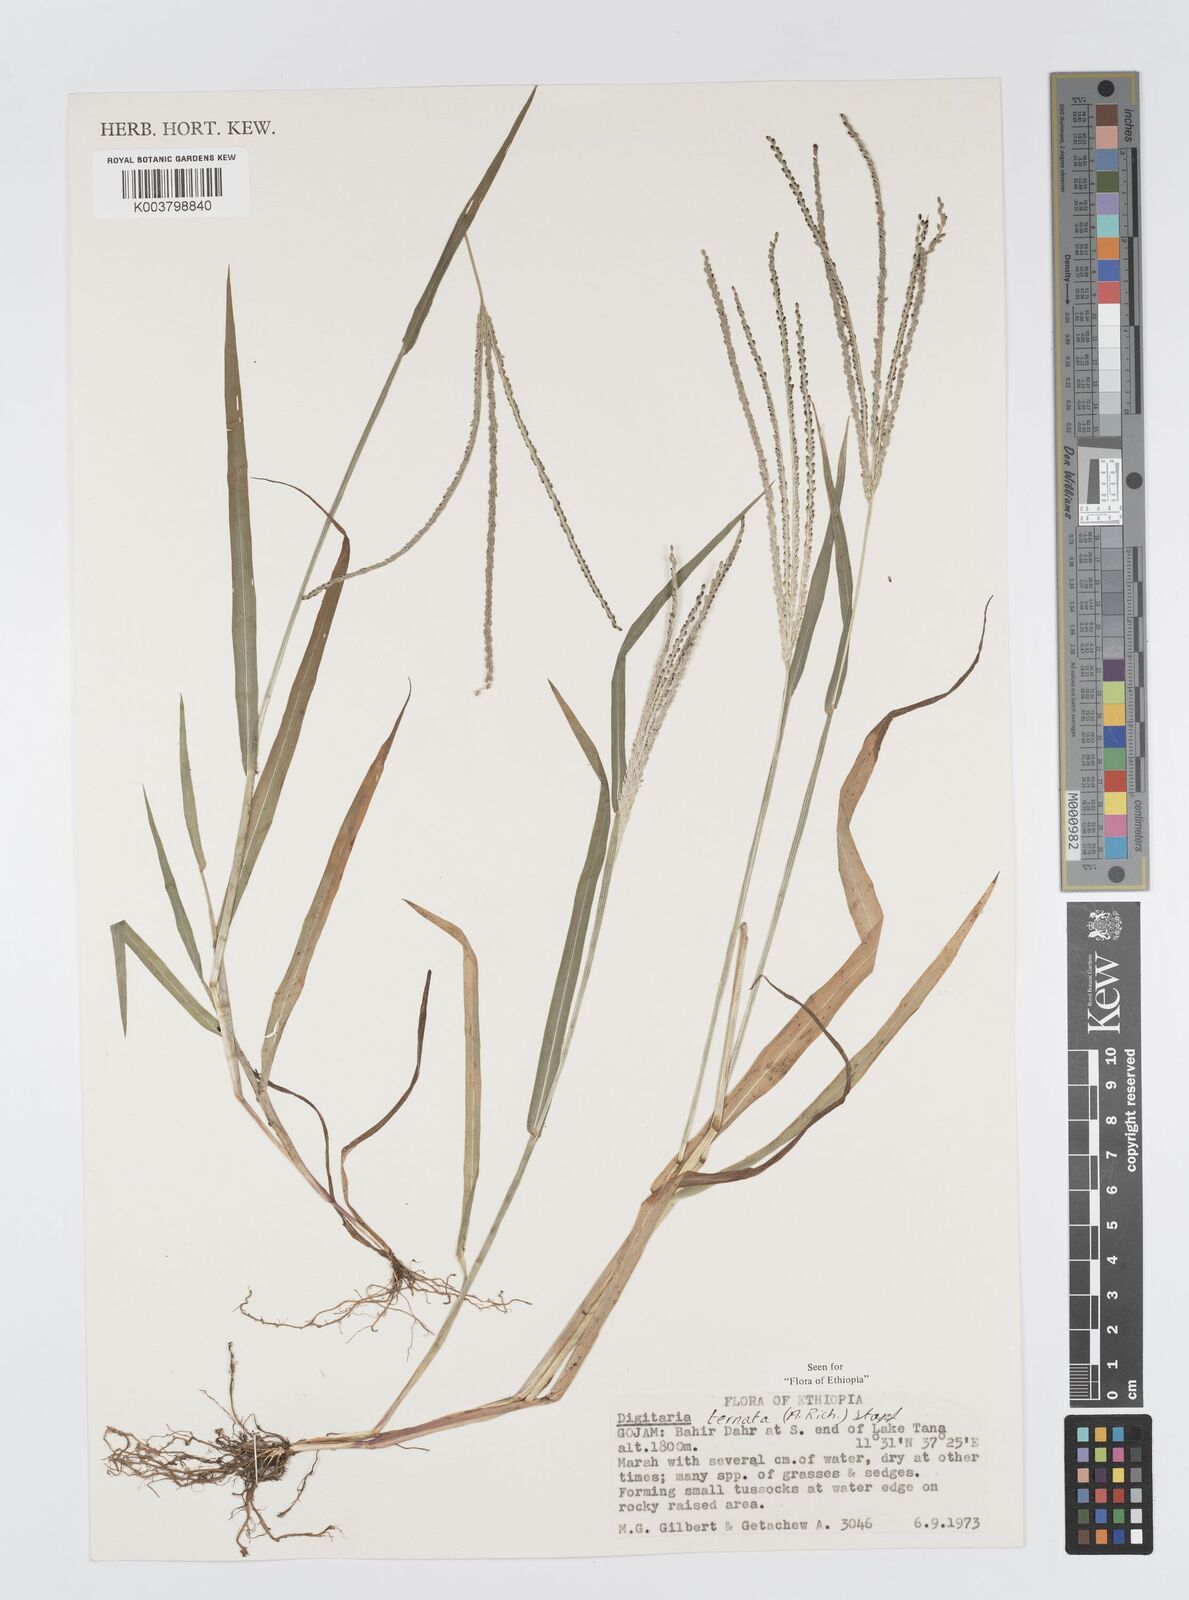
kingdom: Plantae
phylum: Tracheophyta
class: Liliopsida
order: Poales
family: Poaceae
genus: Digitaria
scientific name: Digitaria ternata
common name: Blackseed crabgrass
